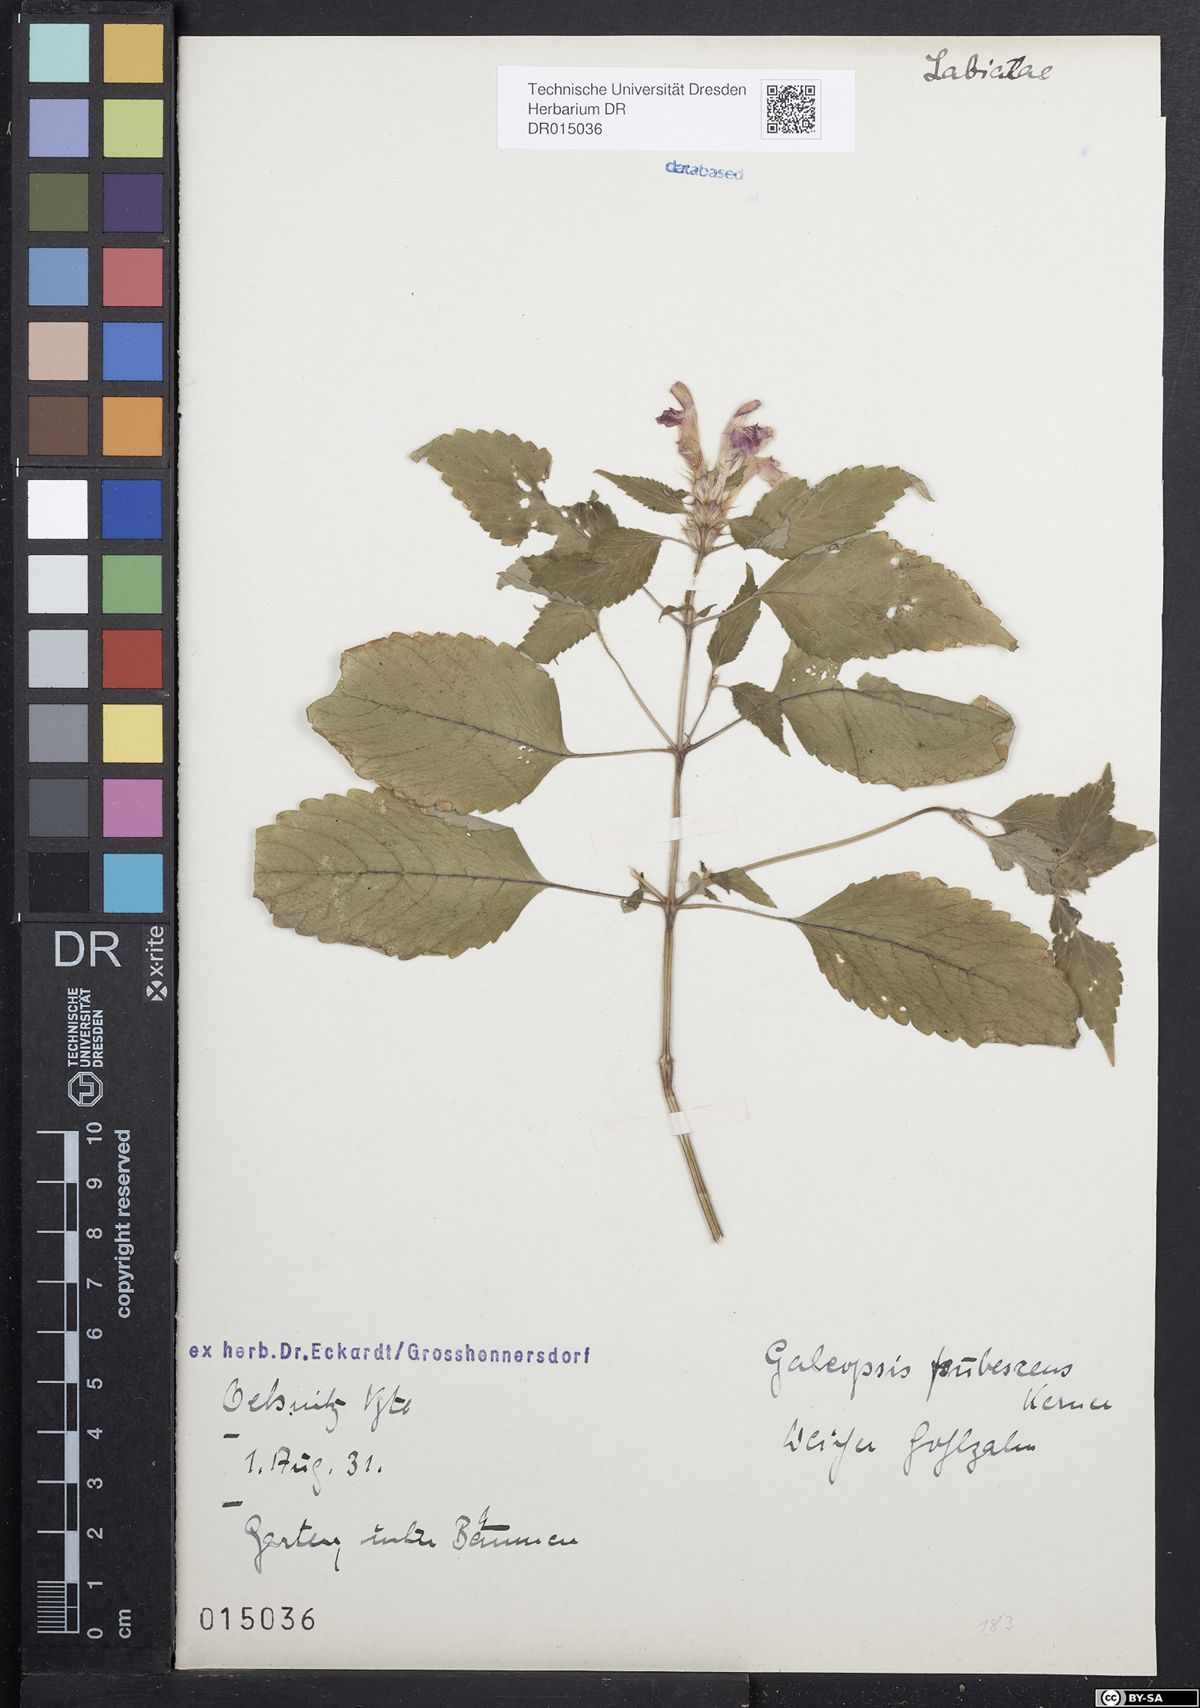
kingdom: Plantae
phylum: Tracheophyta
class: Magnoliopsida
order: Lamiales
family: Lamiaceae
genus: Galeopsis
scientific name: Galeopsis pubescens
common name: Downy hemp-nettle
